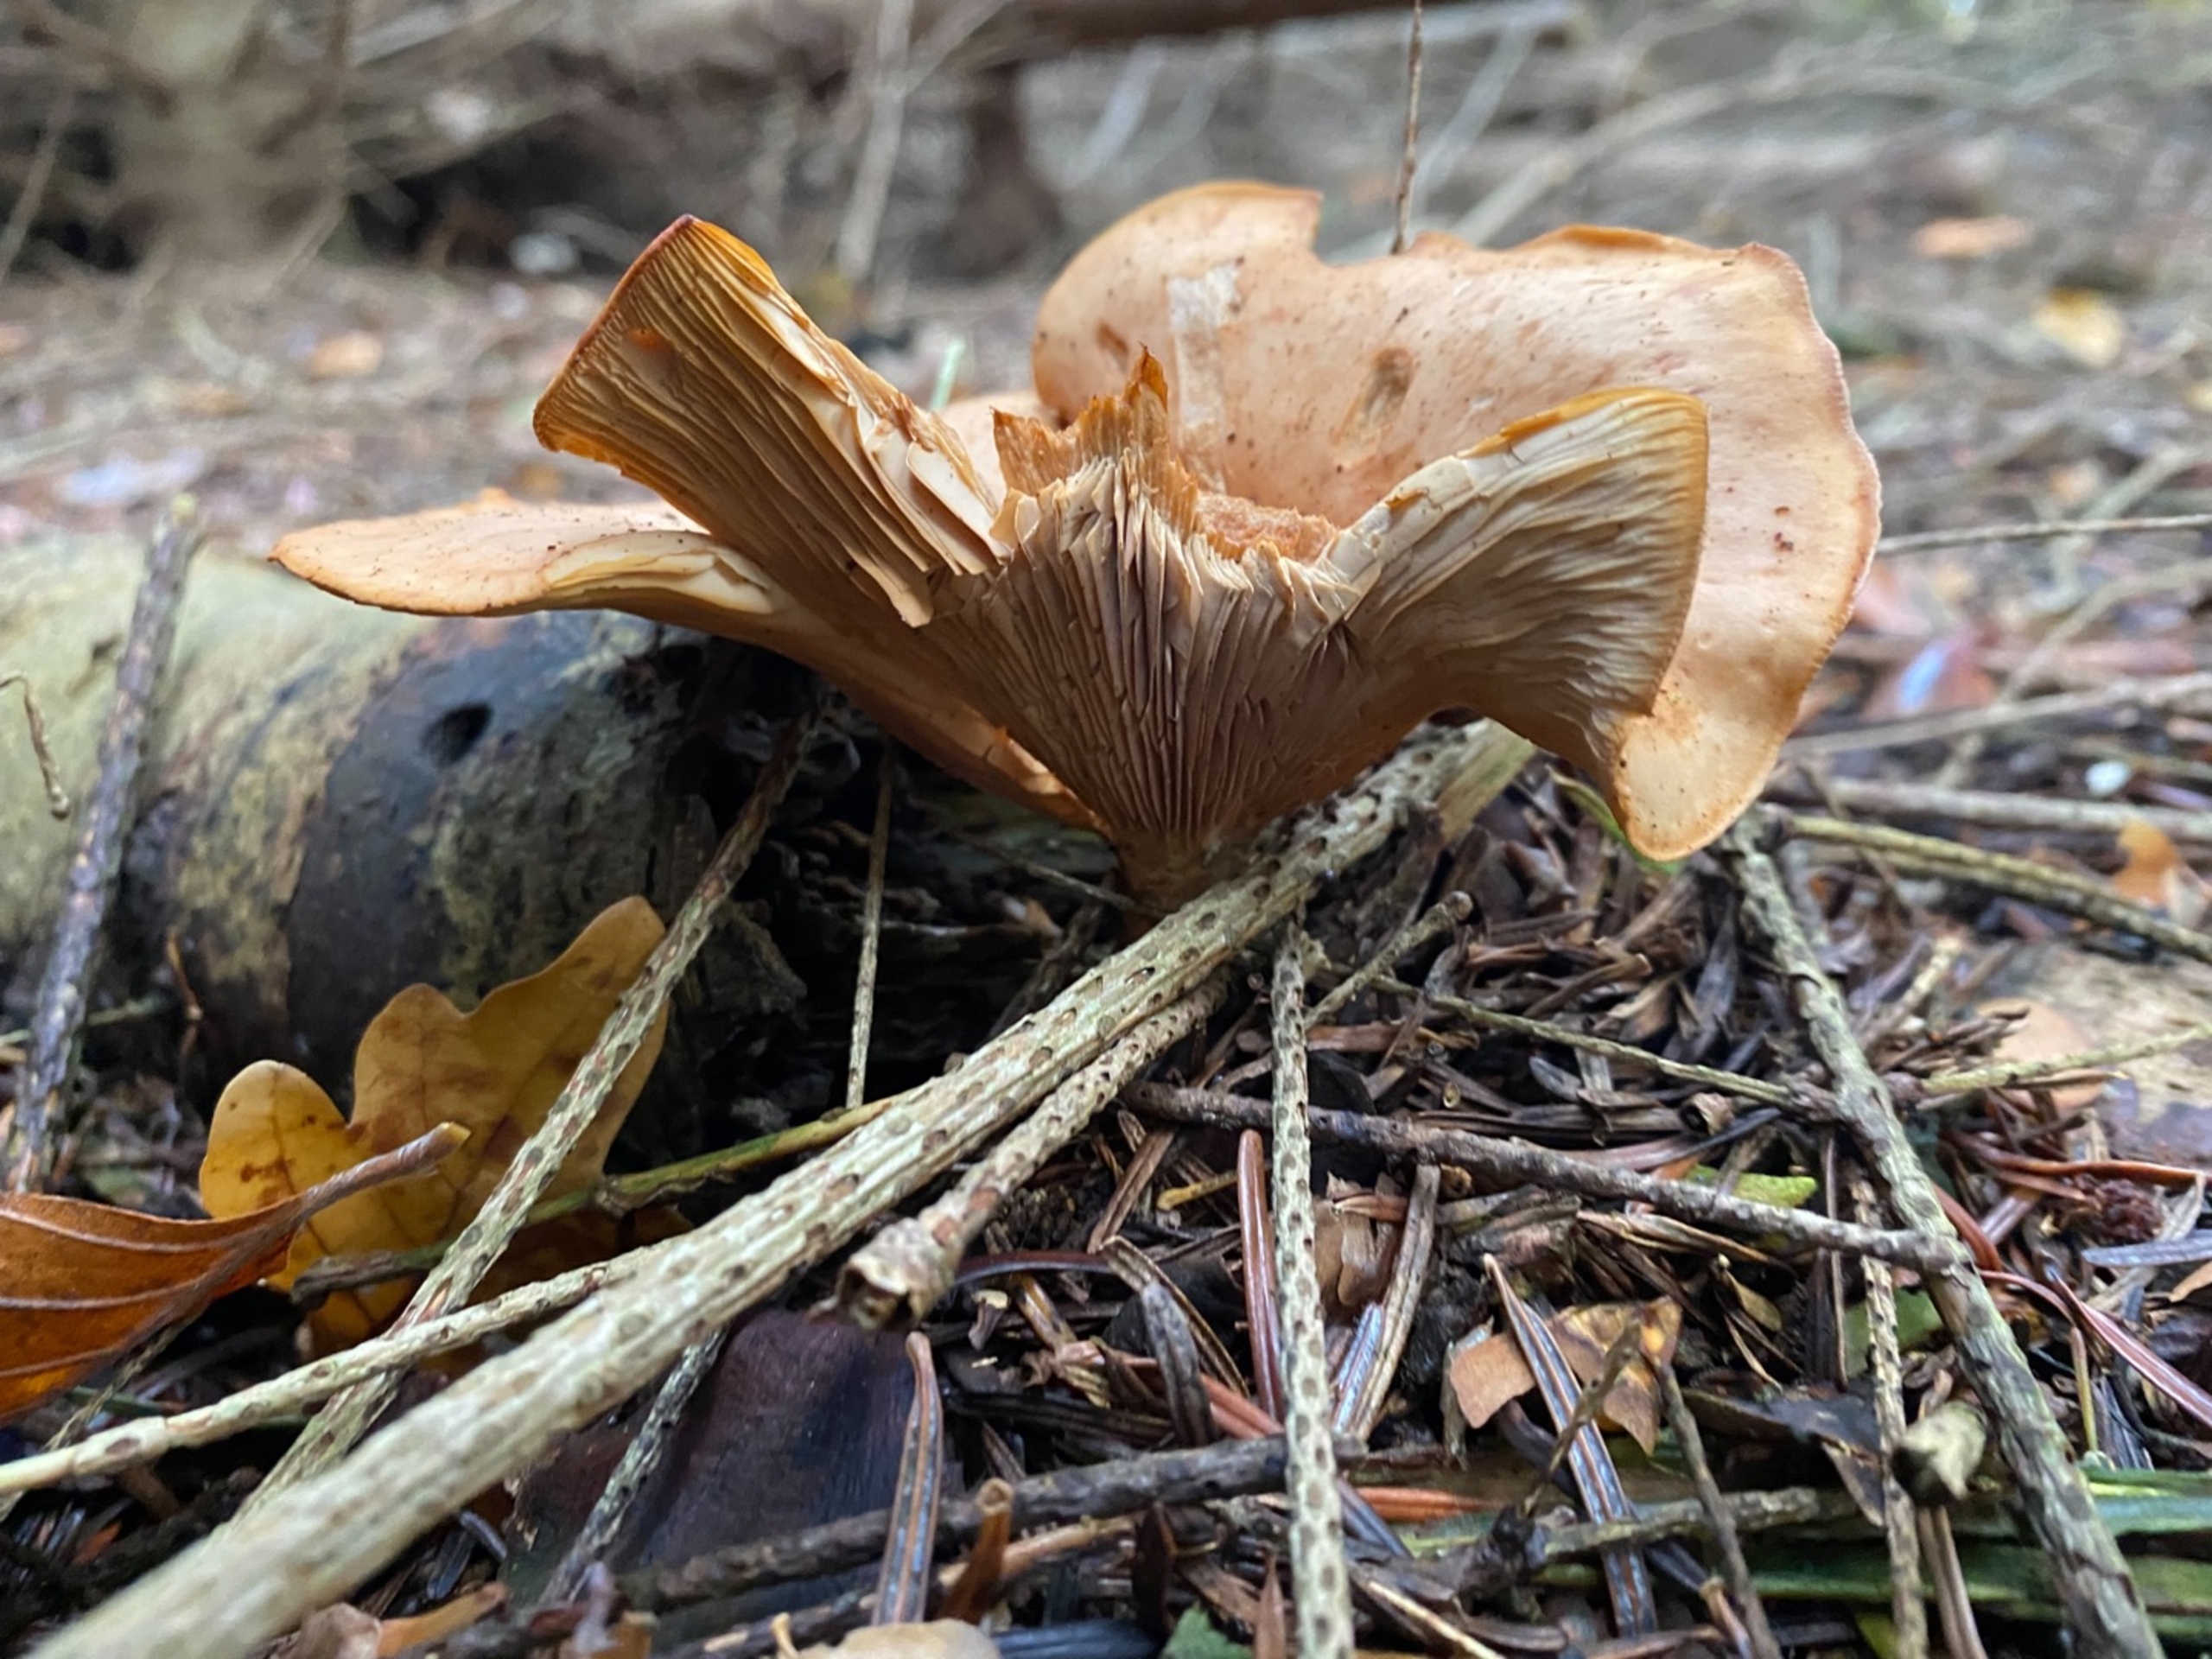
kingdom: Fungi
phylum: Basidiomycota
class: Agaricomycetes
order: Boletales
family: Paxillaceae
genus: Paxillus
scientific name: Paxillus involutus
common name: Almindelig netbladhat
